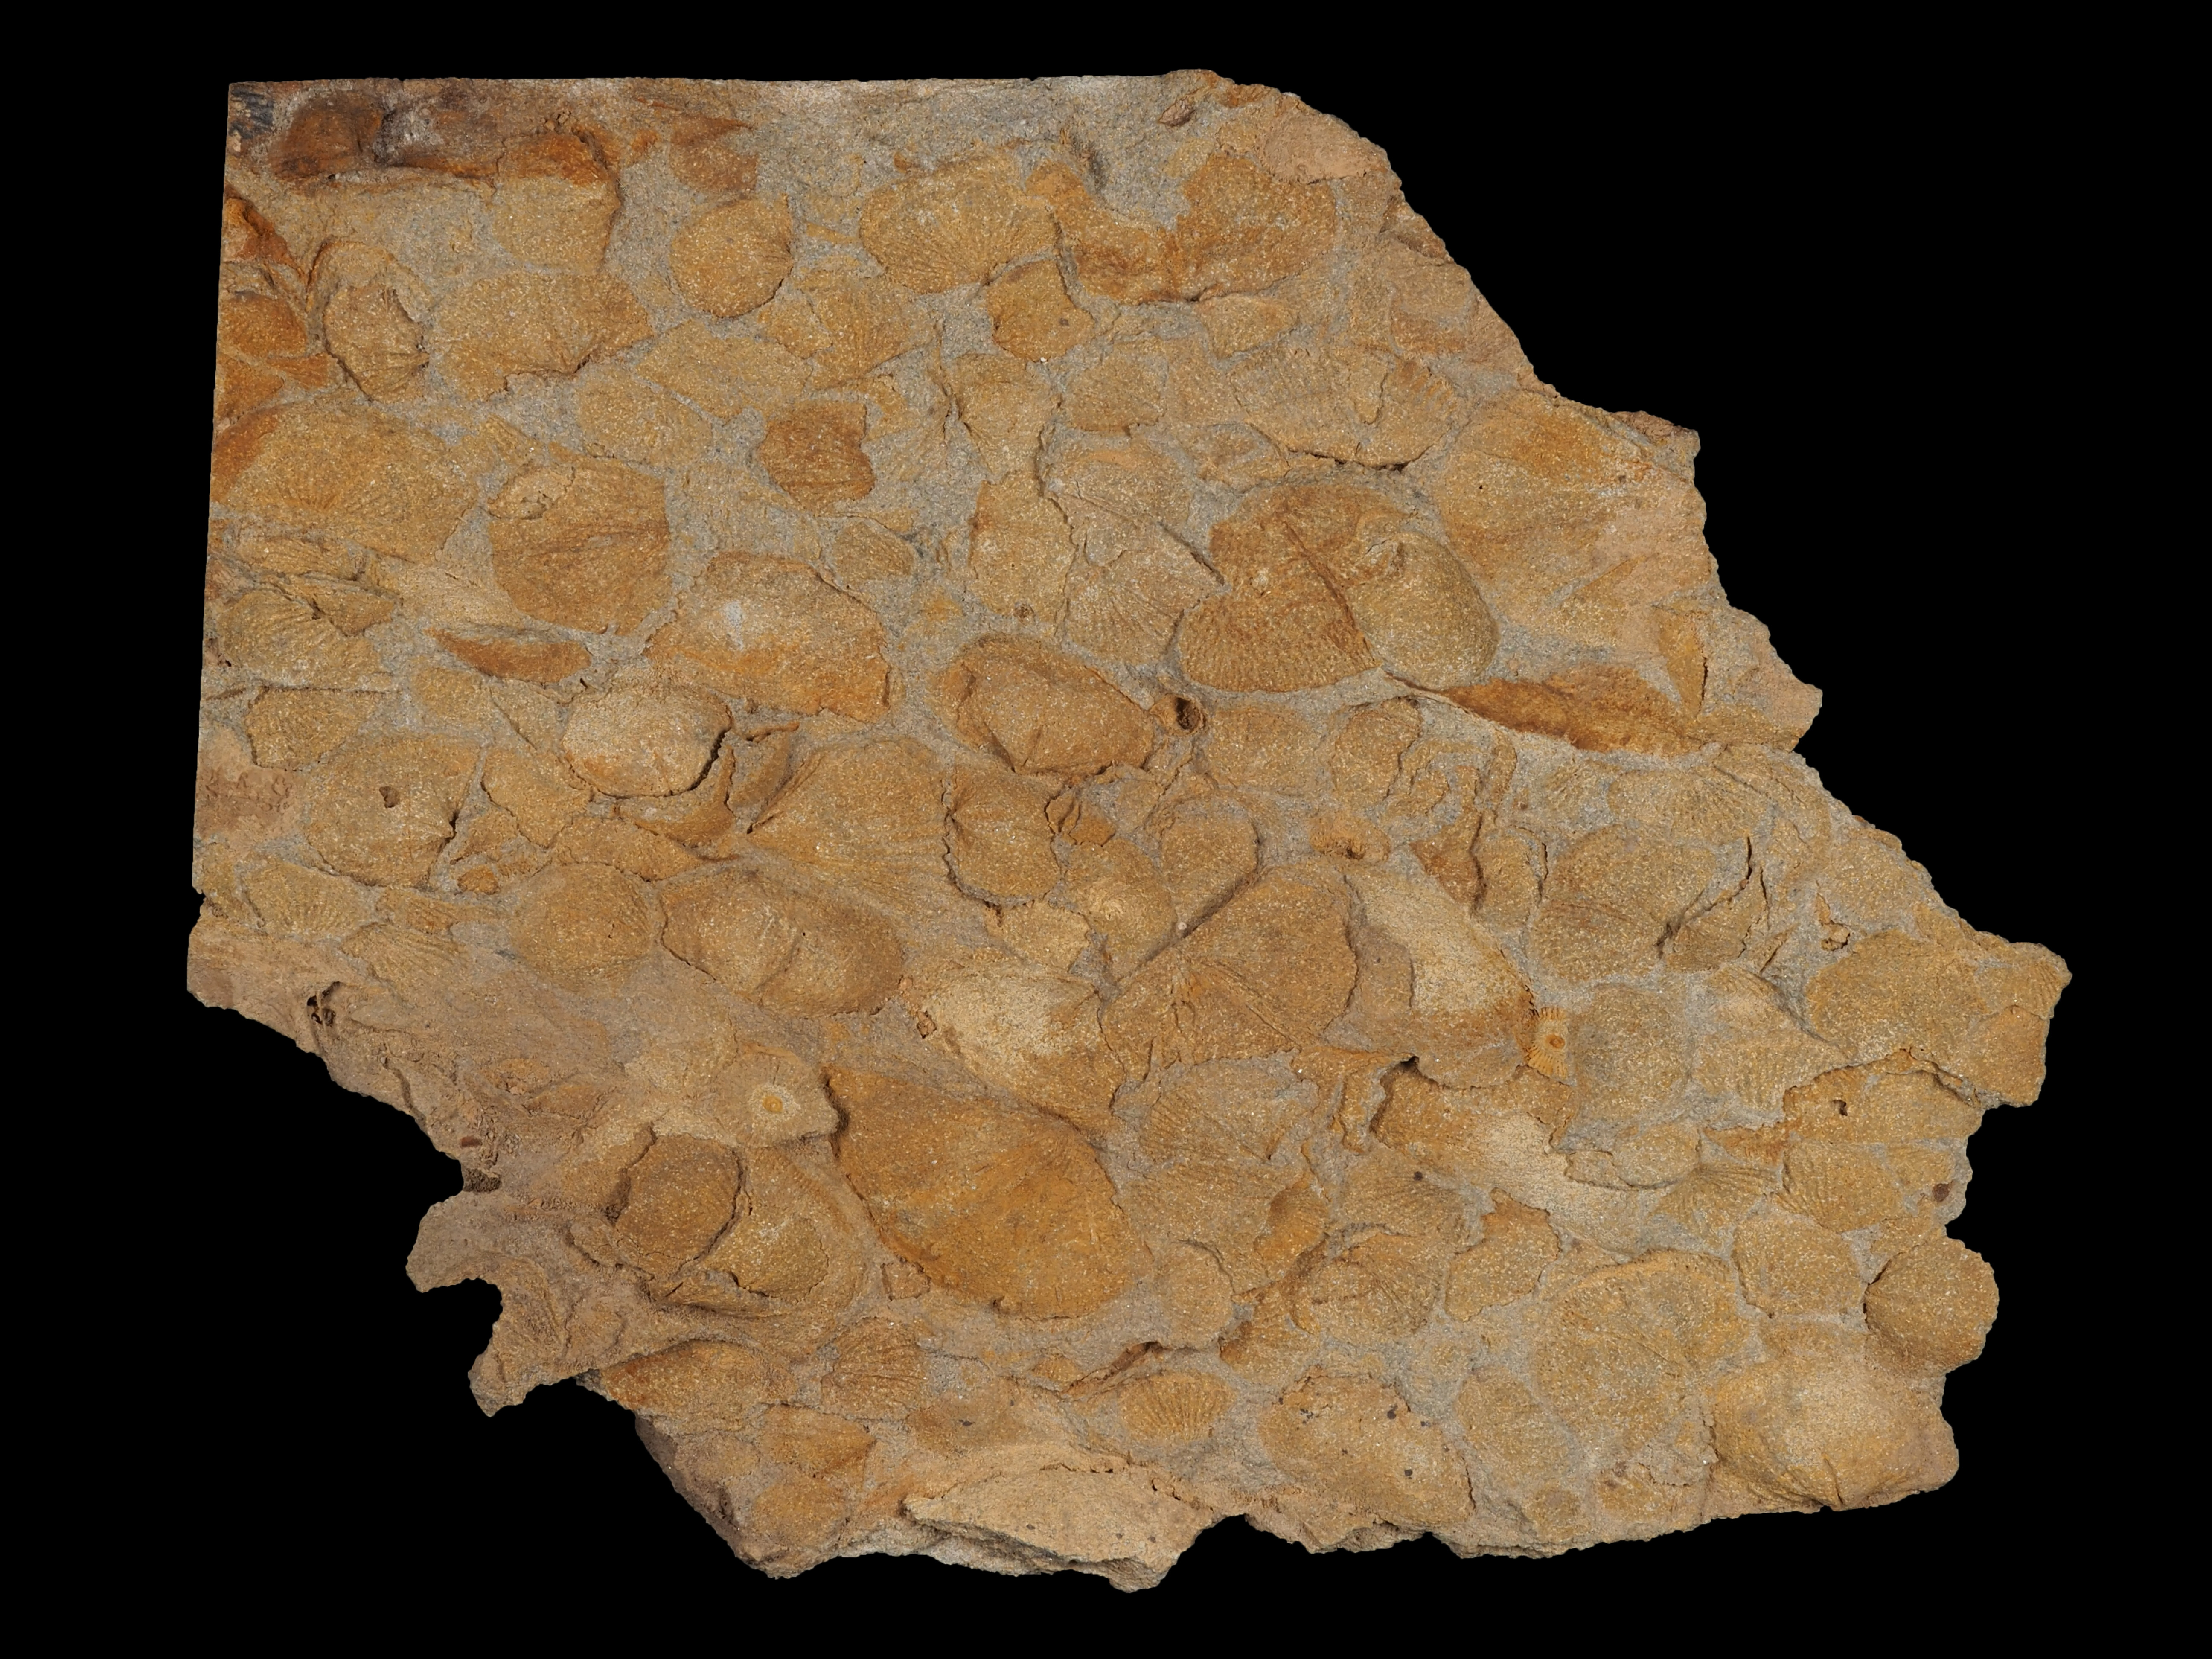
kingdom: Animalia
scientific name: Animalia
